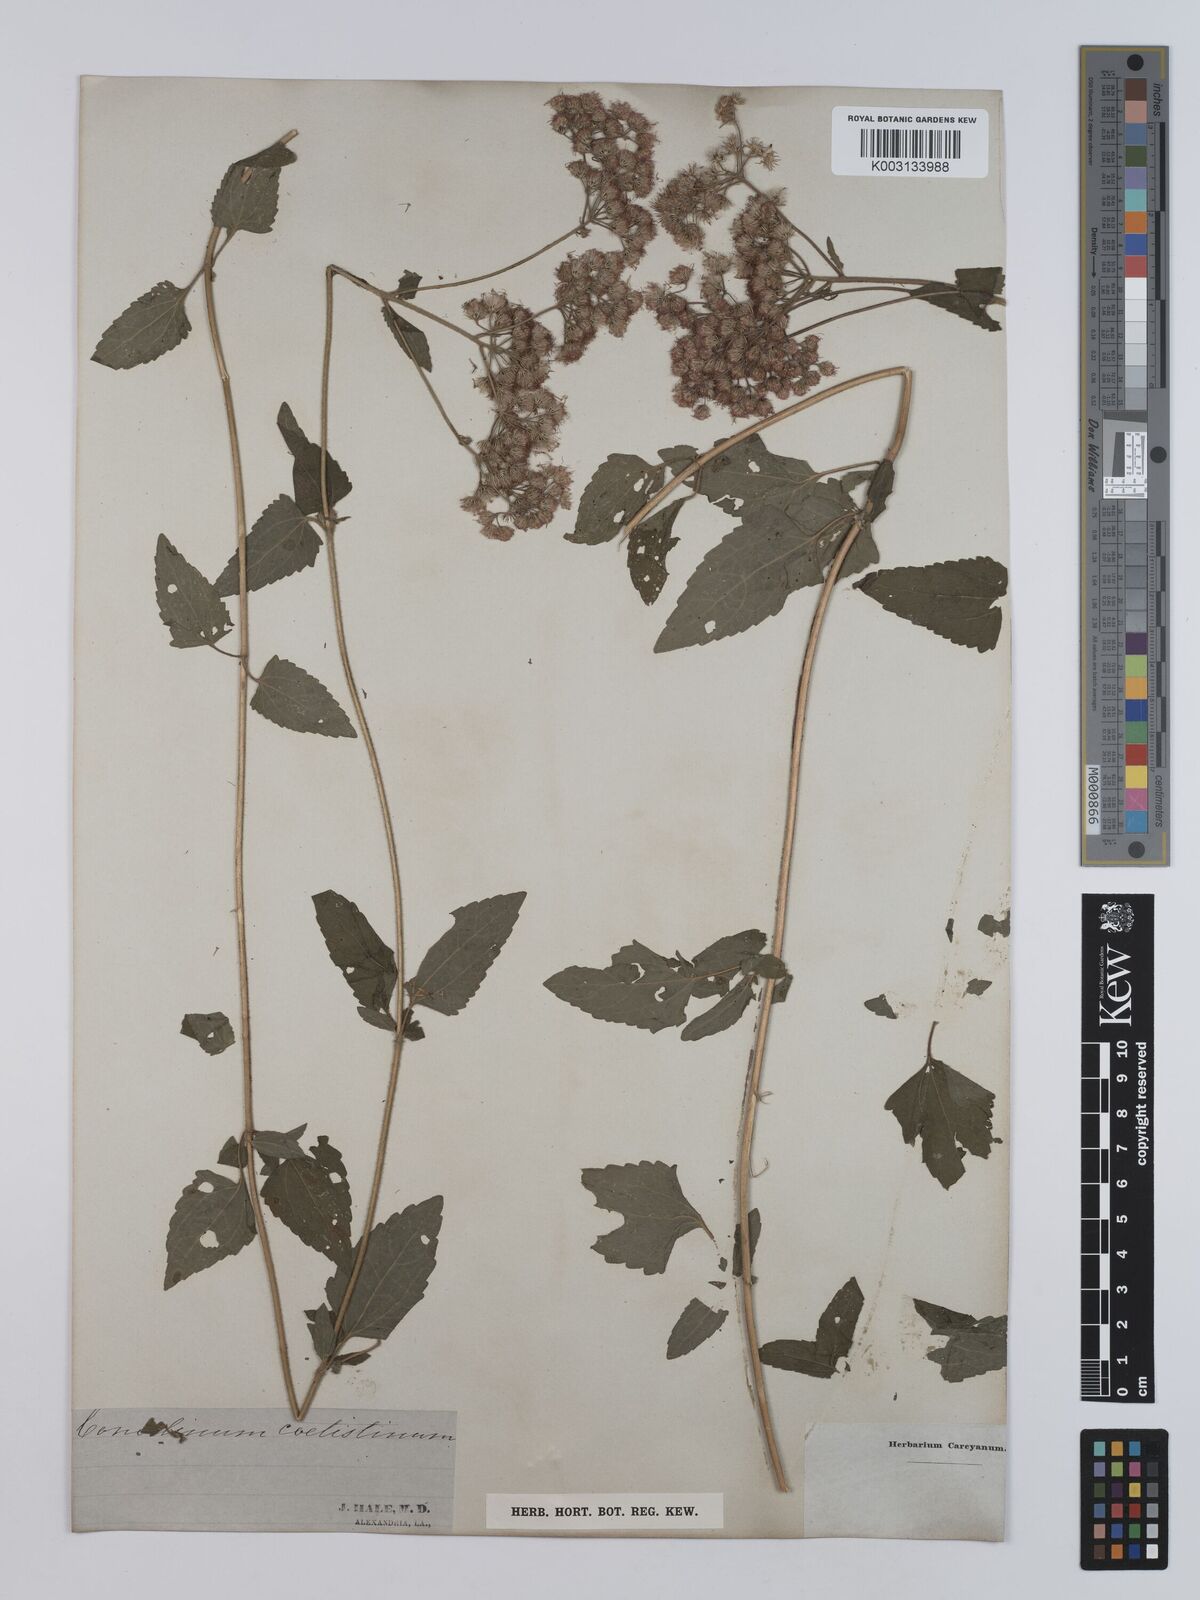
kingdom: Plantae
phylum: Tracheophyta
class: Magnoliopsida
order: Asterales
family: Asteraceae
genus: Conoclinium
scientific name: Conoclinium coelestinum
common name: Blue mistflower
